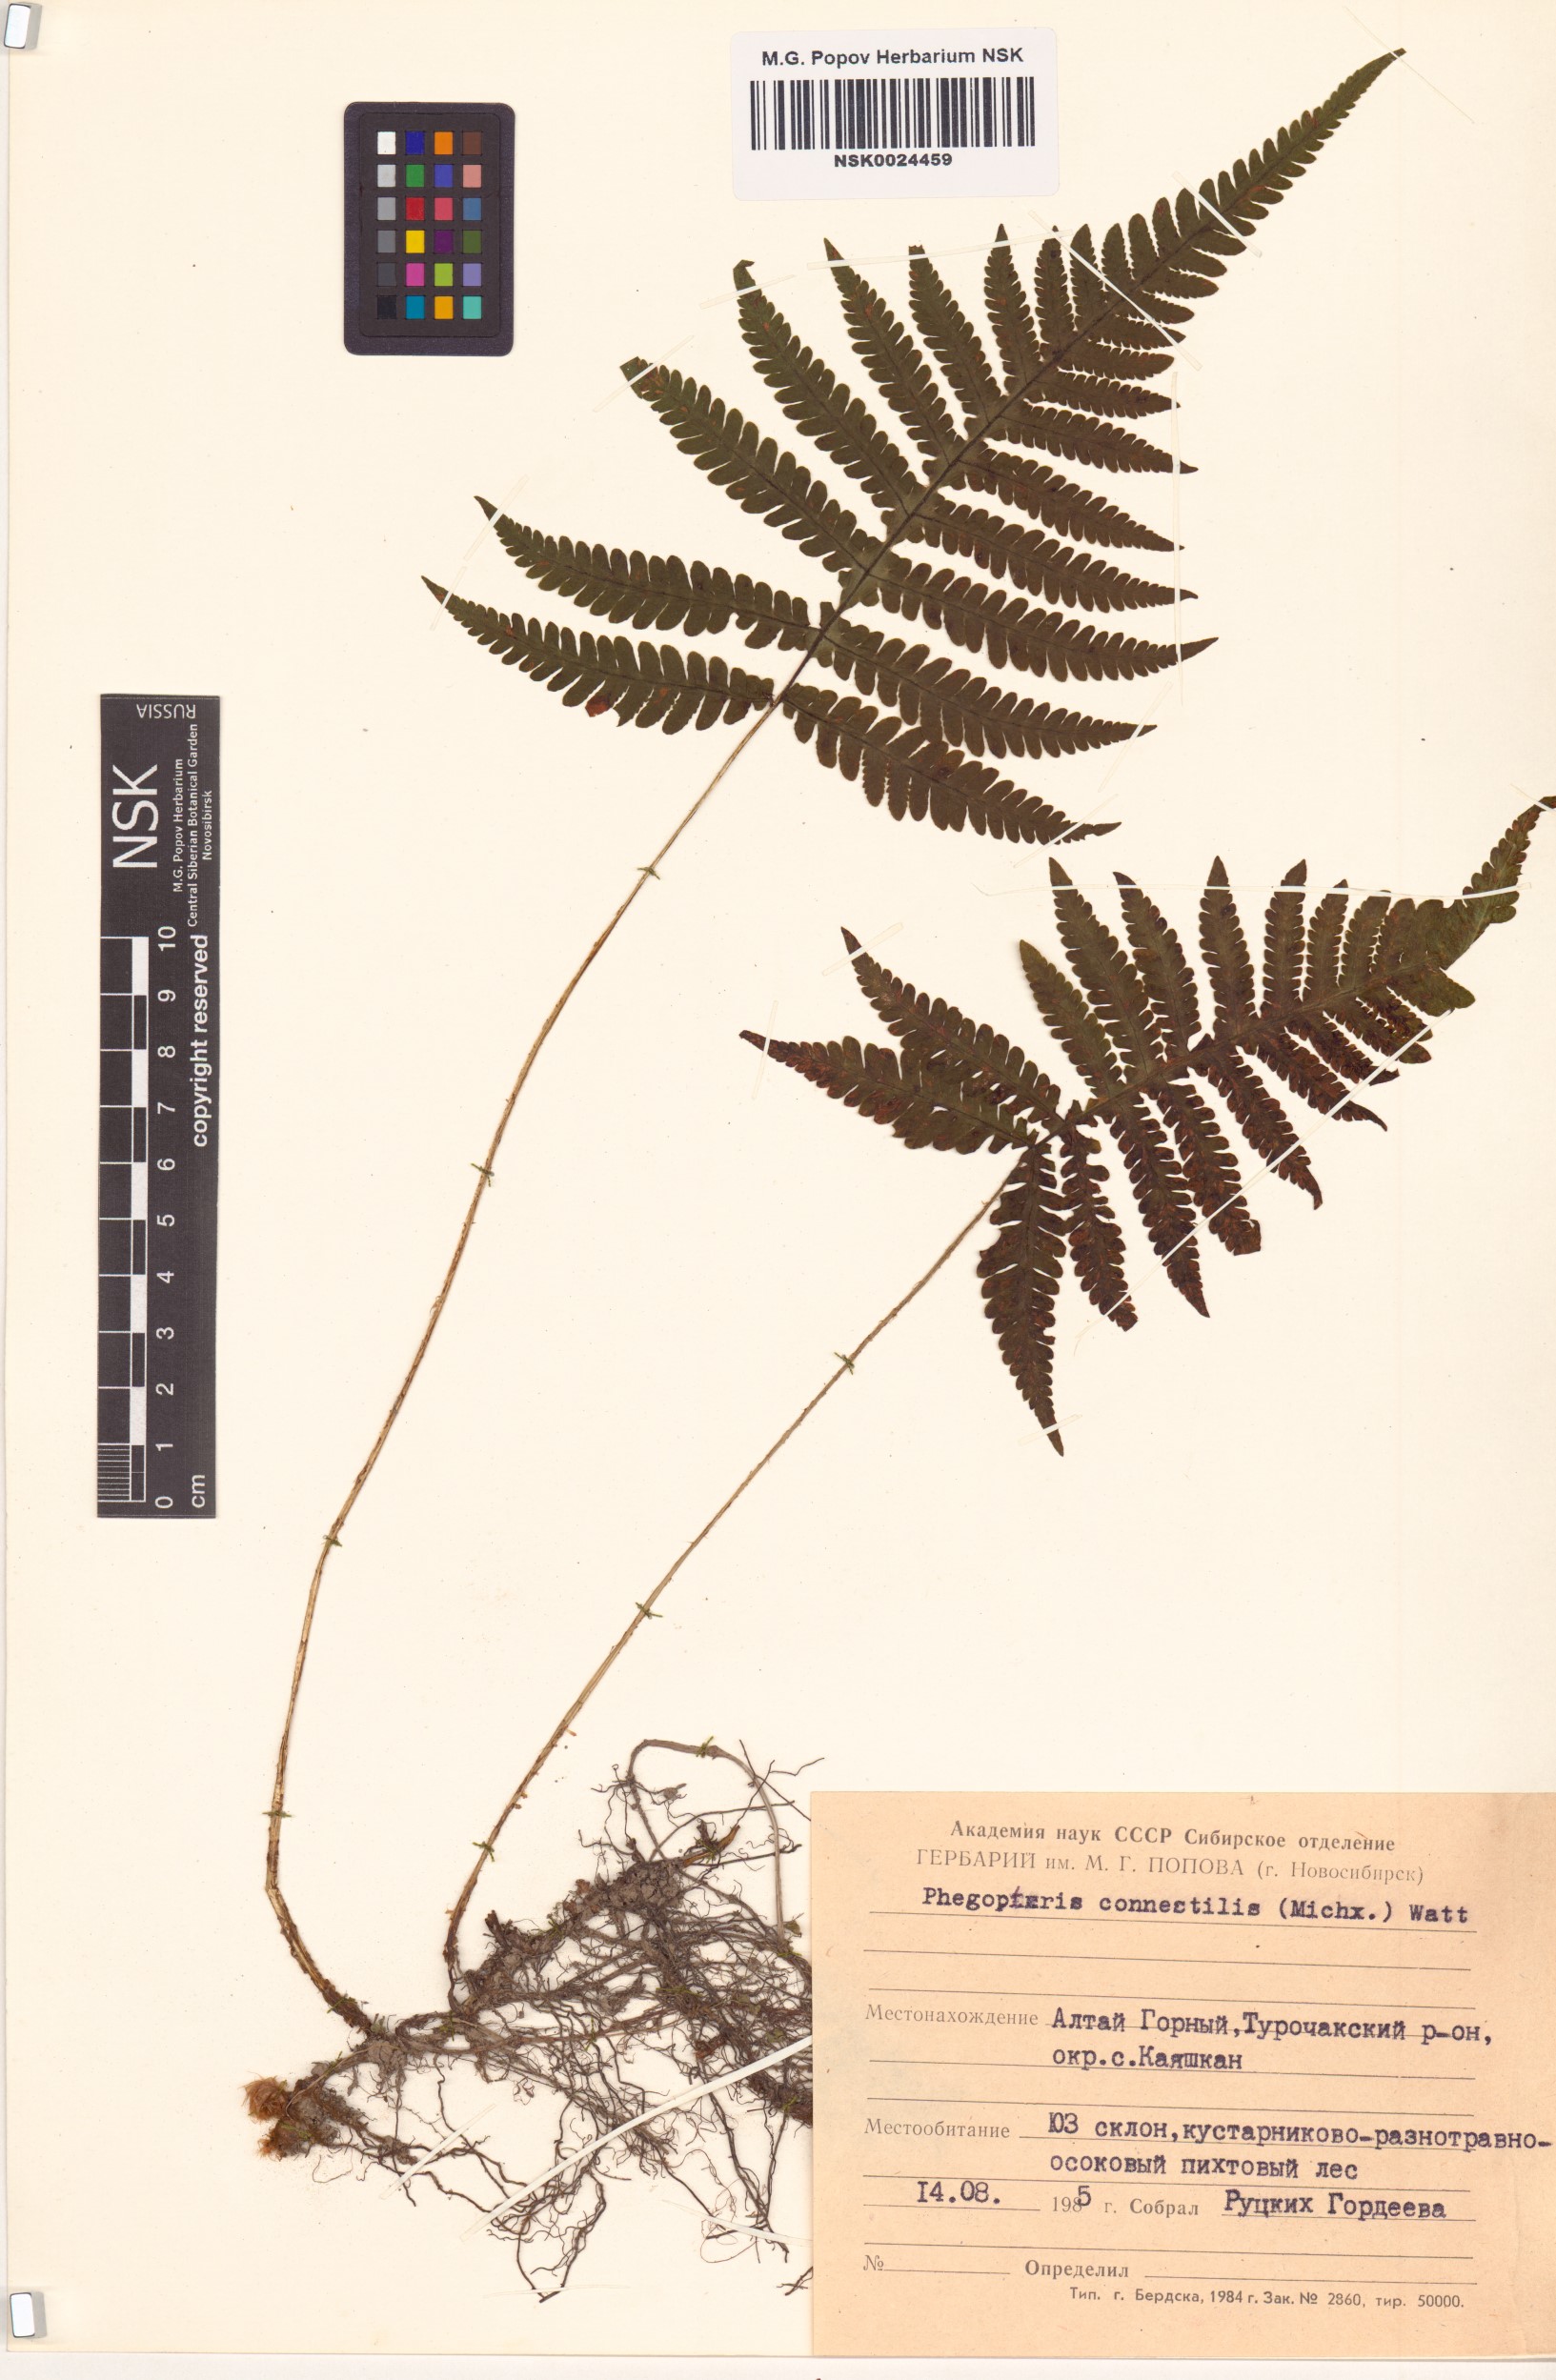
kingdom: Plantae
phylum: Tracheophyta
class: Polypodiopsida
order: Polypodiales
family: Thelypteridaceae
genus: Phegopteris
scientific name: Phegopteris connectilis
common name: Beech fern
